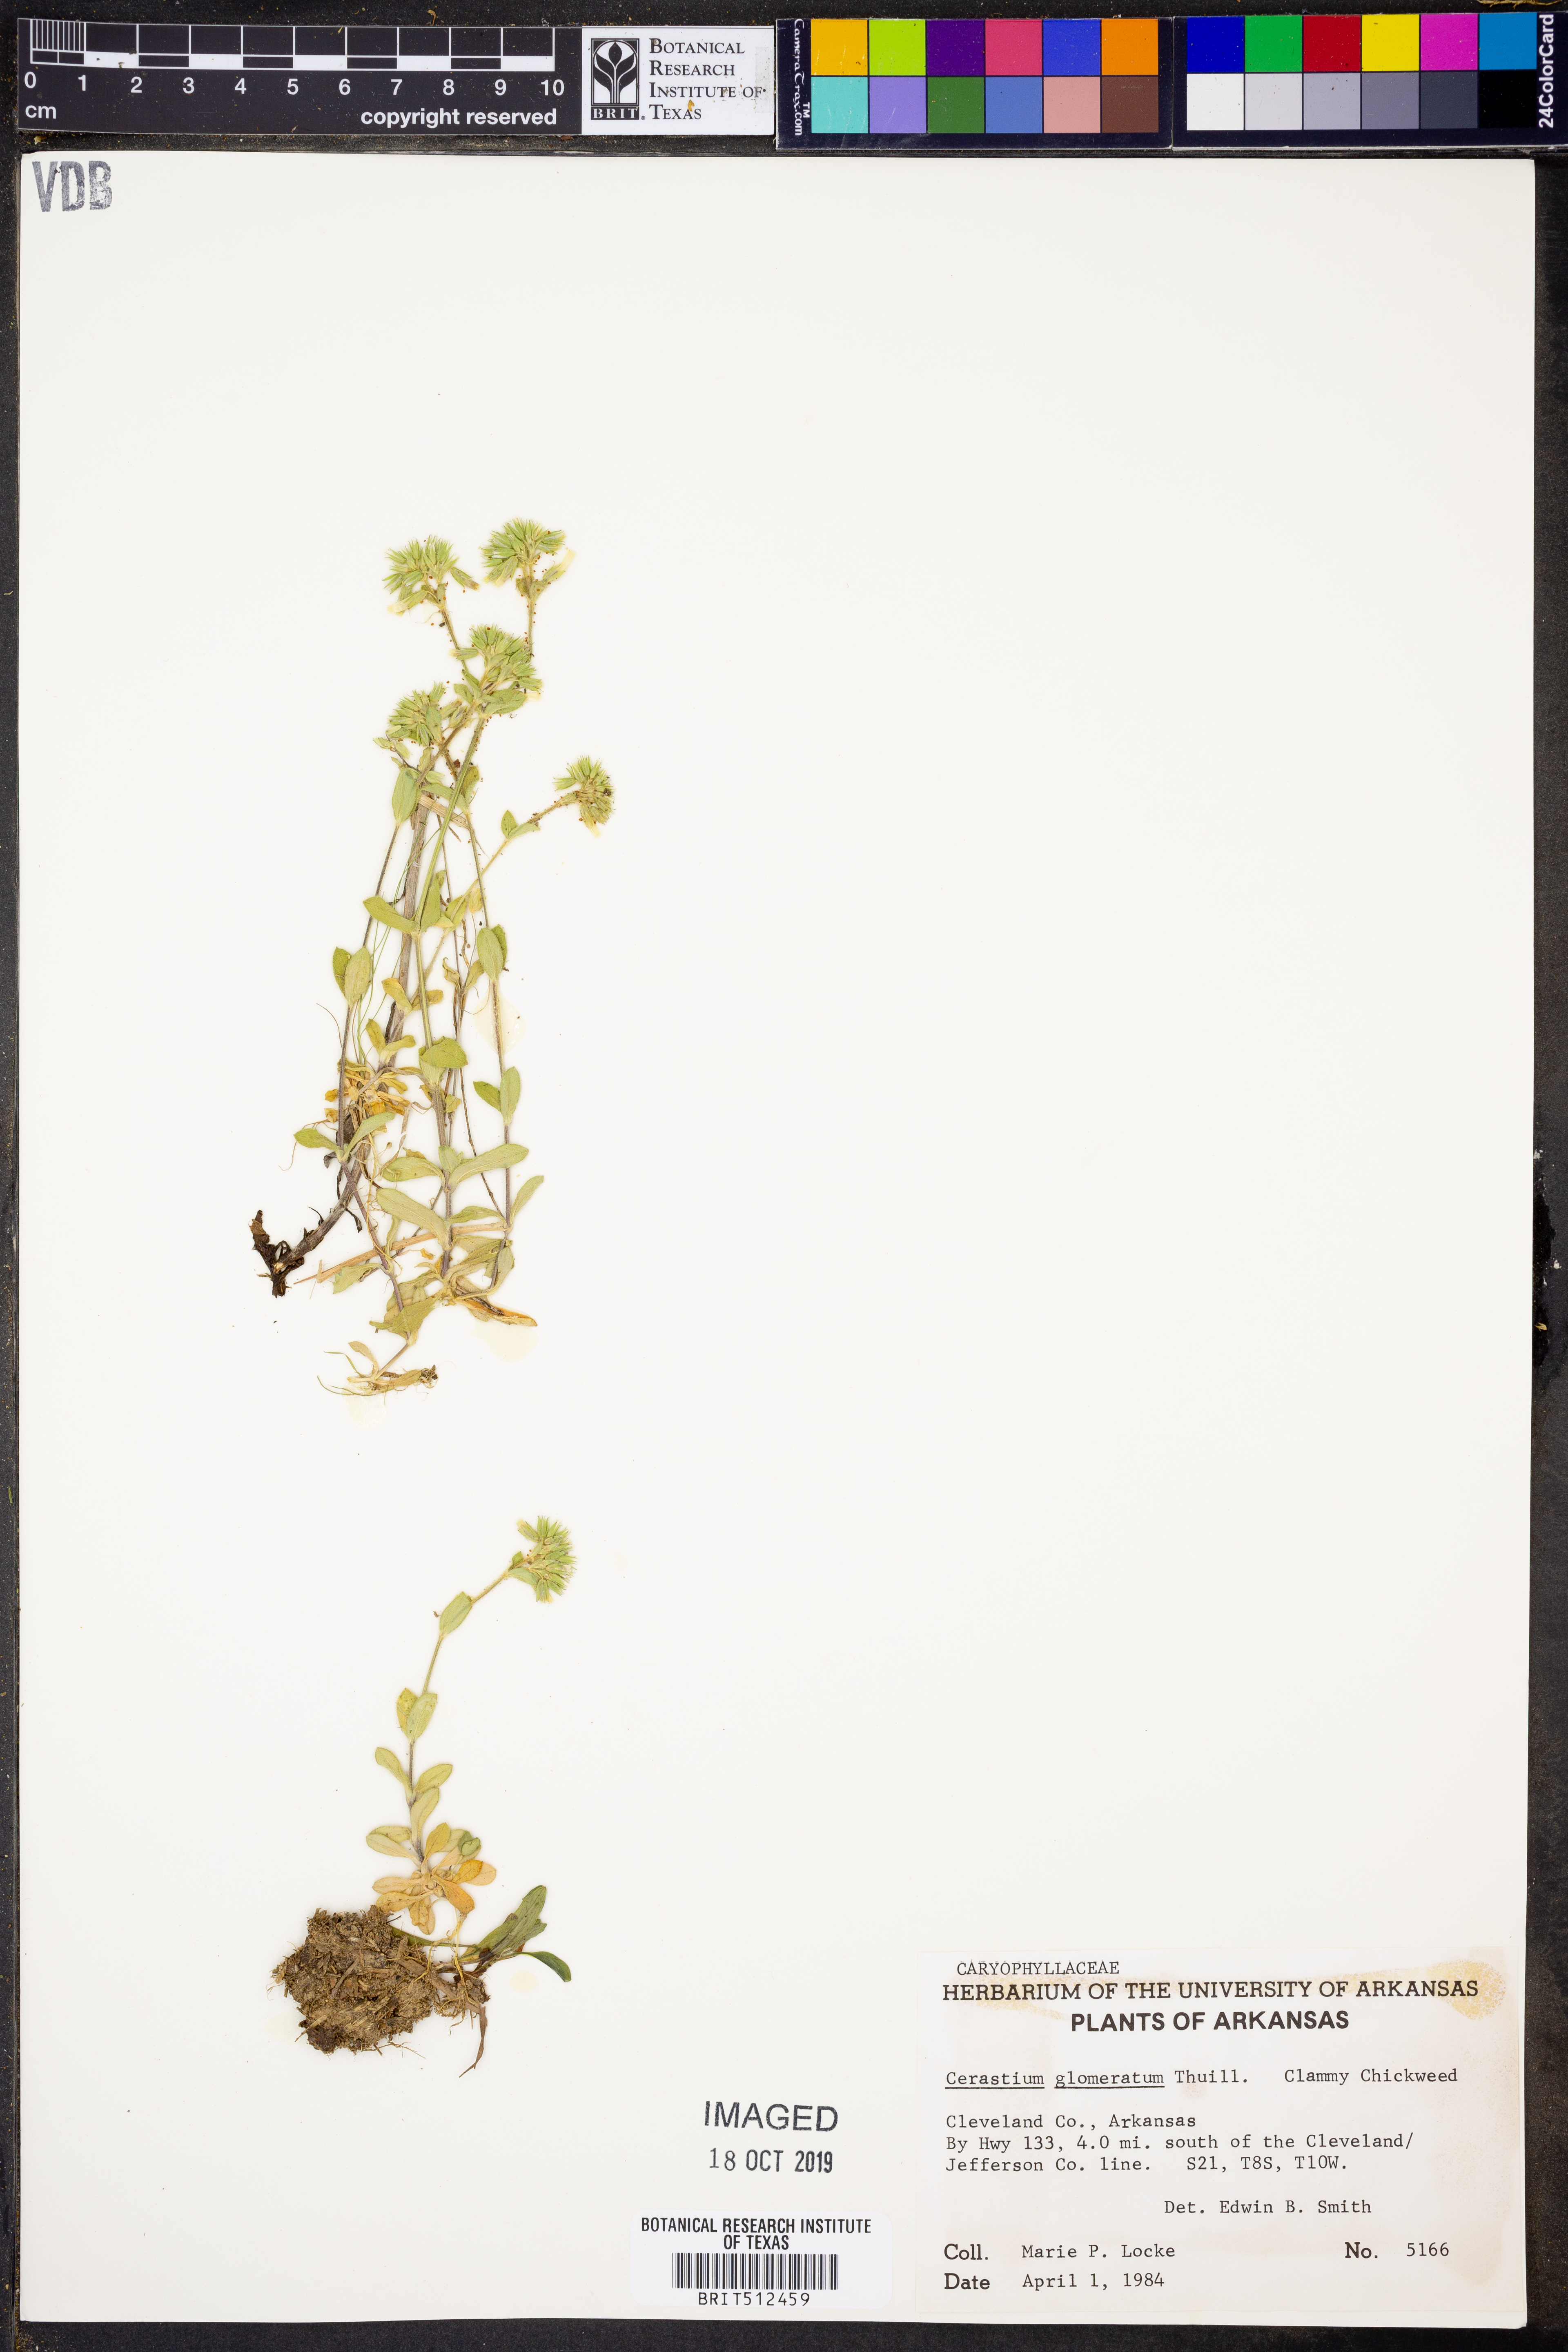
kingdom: Plantae
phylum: Tracheophyta
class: Magnoliopsida
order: Caryophyllales
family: Caryophyllaceae
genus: Cerastium
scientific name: Cerastium glomeratum
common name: Sticky chickweed
